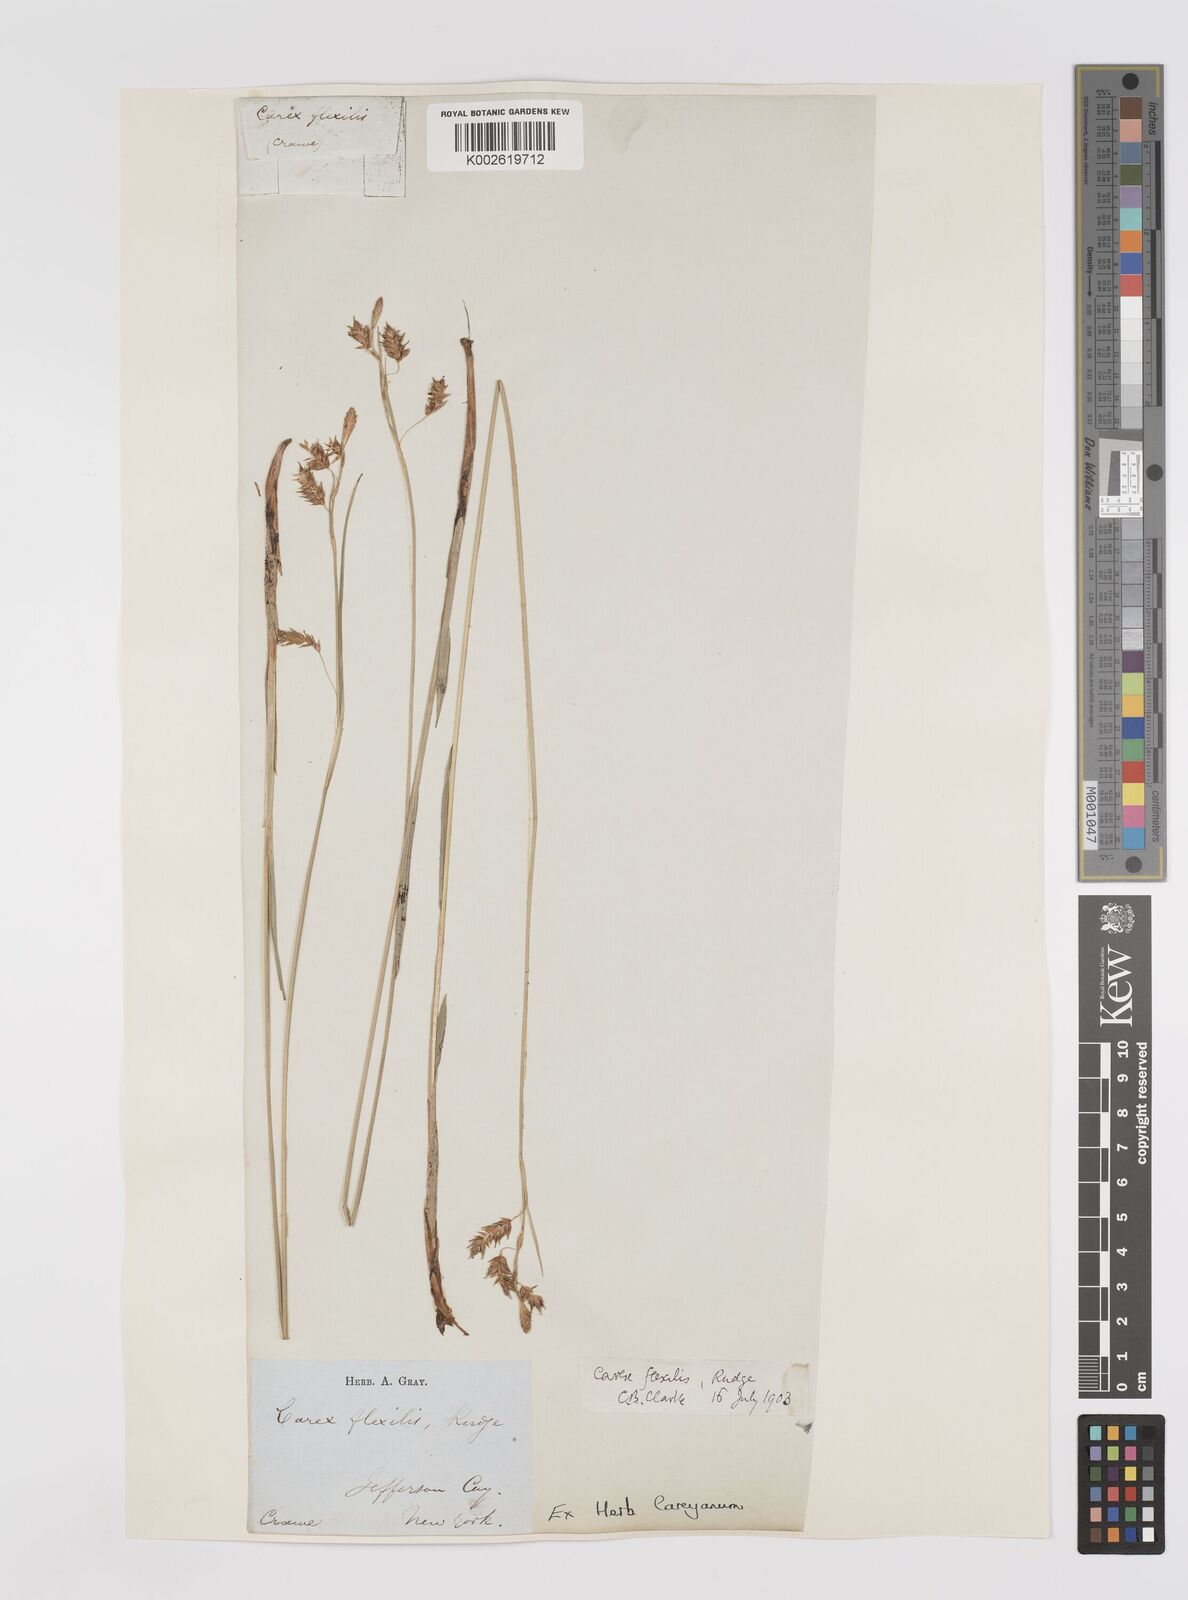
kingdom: Plantae
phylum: Tracheophyta
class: Liliopsida
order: Poales
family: Cyperaceae
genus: Carex
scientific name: Carex castanea
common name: Chestnut sedge
